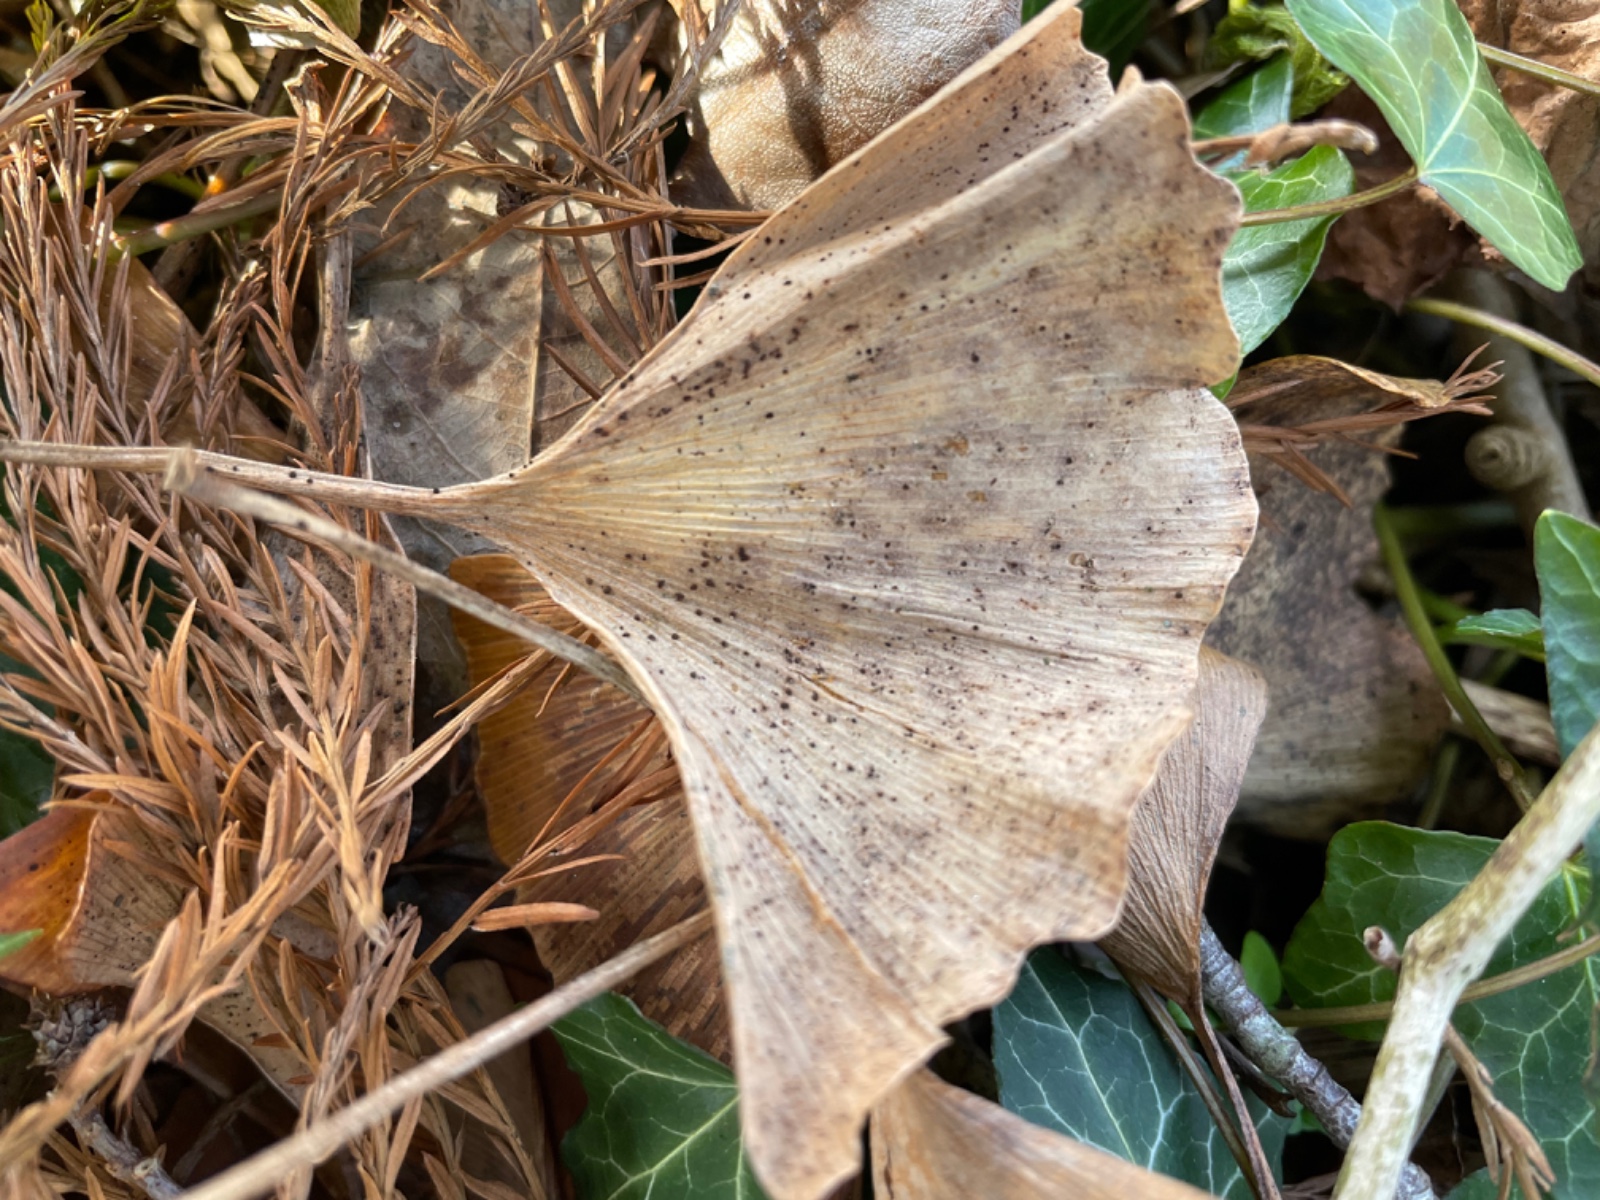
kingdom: Fungi
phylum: Basidiomycota
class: Wallemiomycetes
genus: Bartheletia
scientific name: Bartheletia paradoxa
